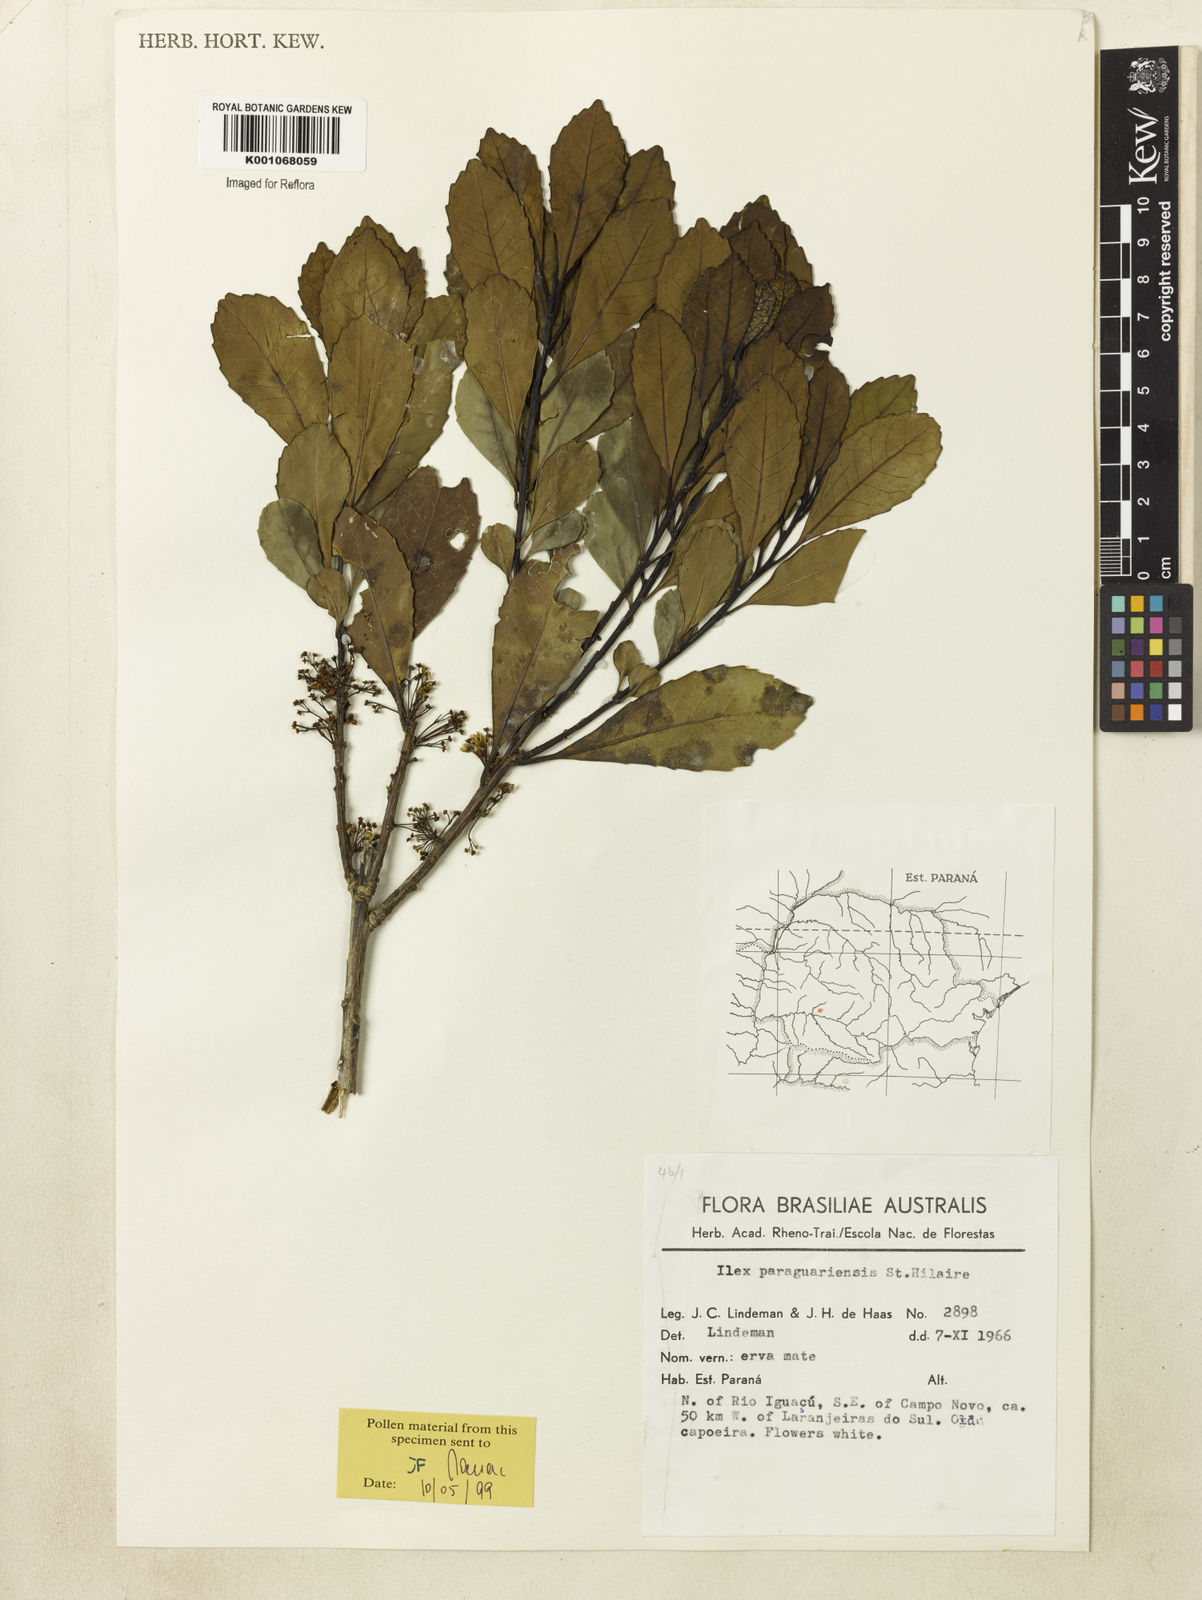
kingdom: Plantae
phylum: Tracheophyta
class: Magnoliopsida
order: Aquifoliales
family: Aquifoliaceae
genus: Ilex
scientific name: Ilex paraguariensis
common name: Paraguay tea
